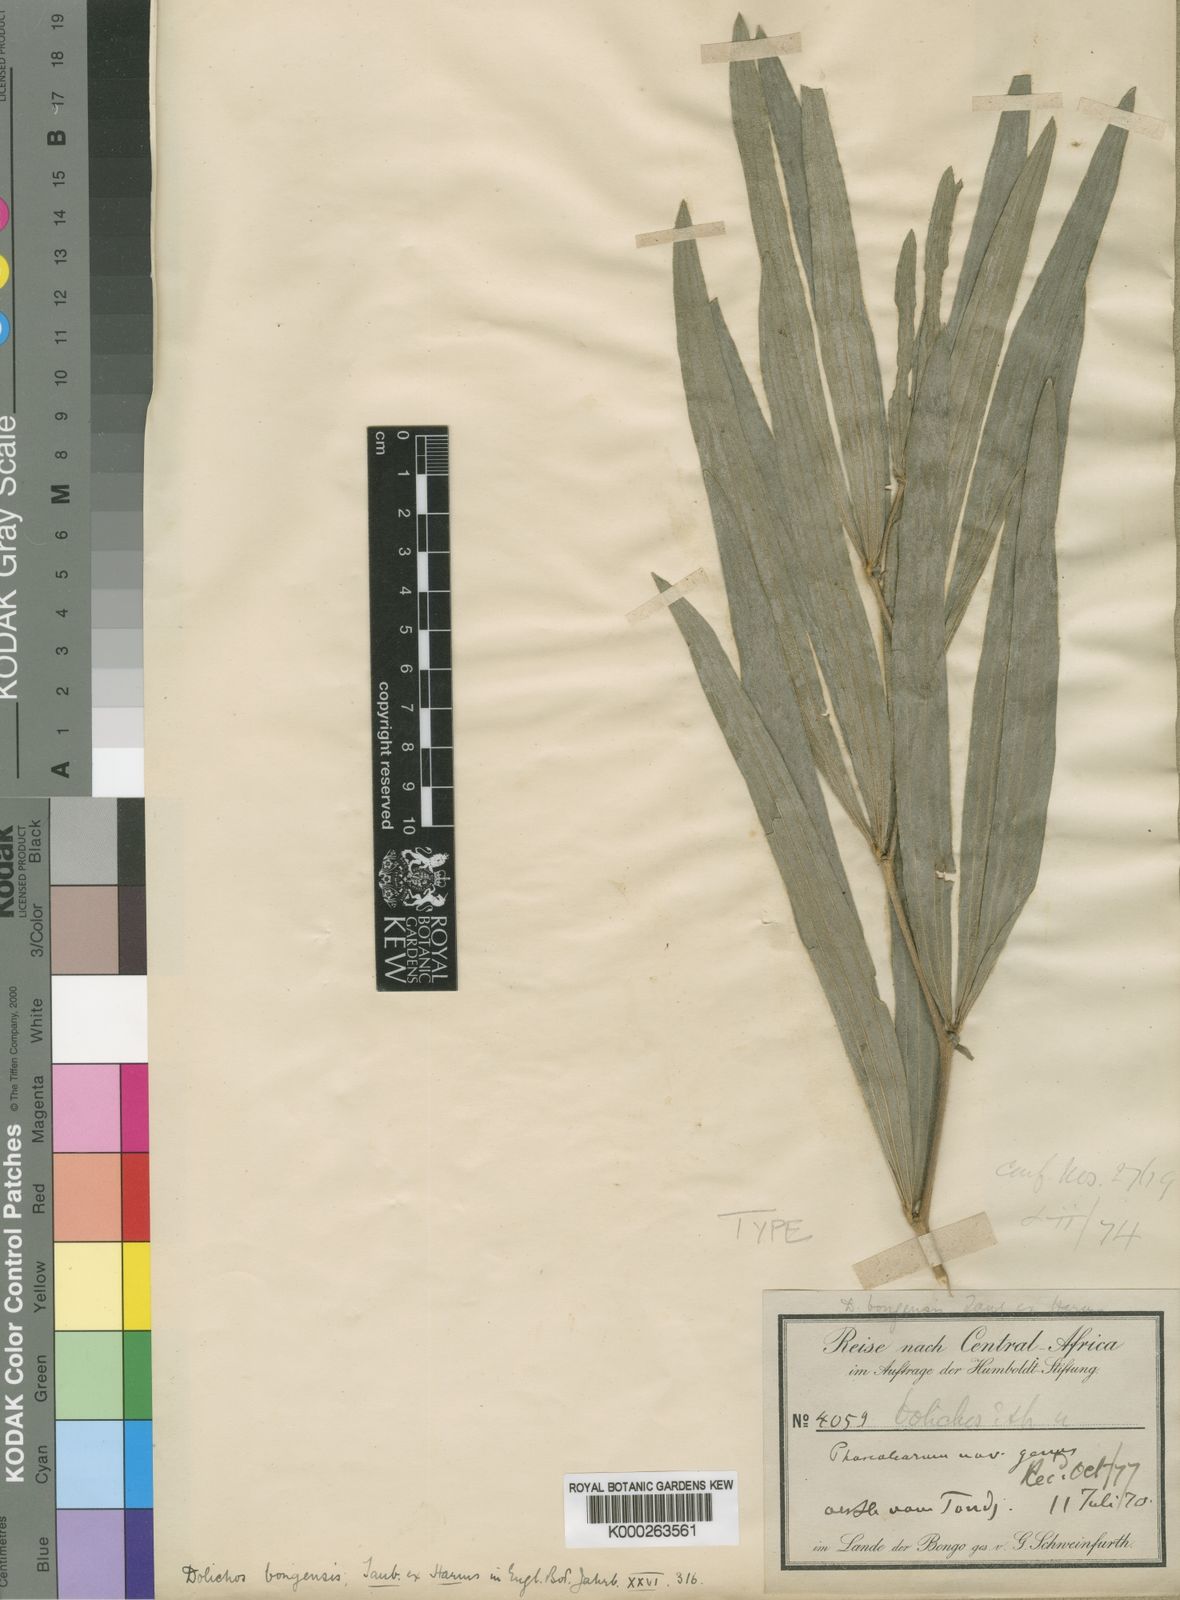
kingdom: Plantae
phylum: Tracheophyta
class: Magnoliopsida
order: Fabales
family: Fabaceae
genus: Dolichos
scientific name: Dolichos
